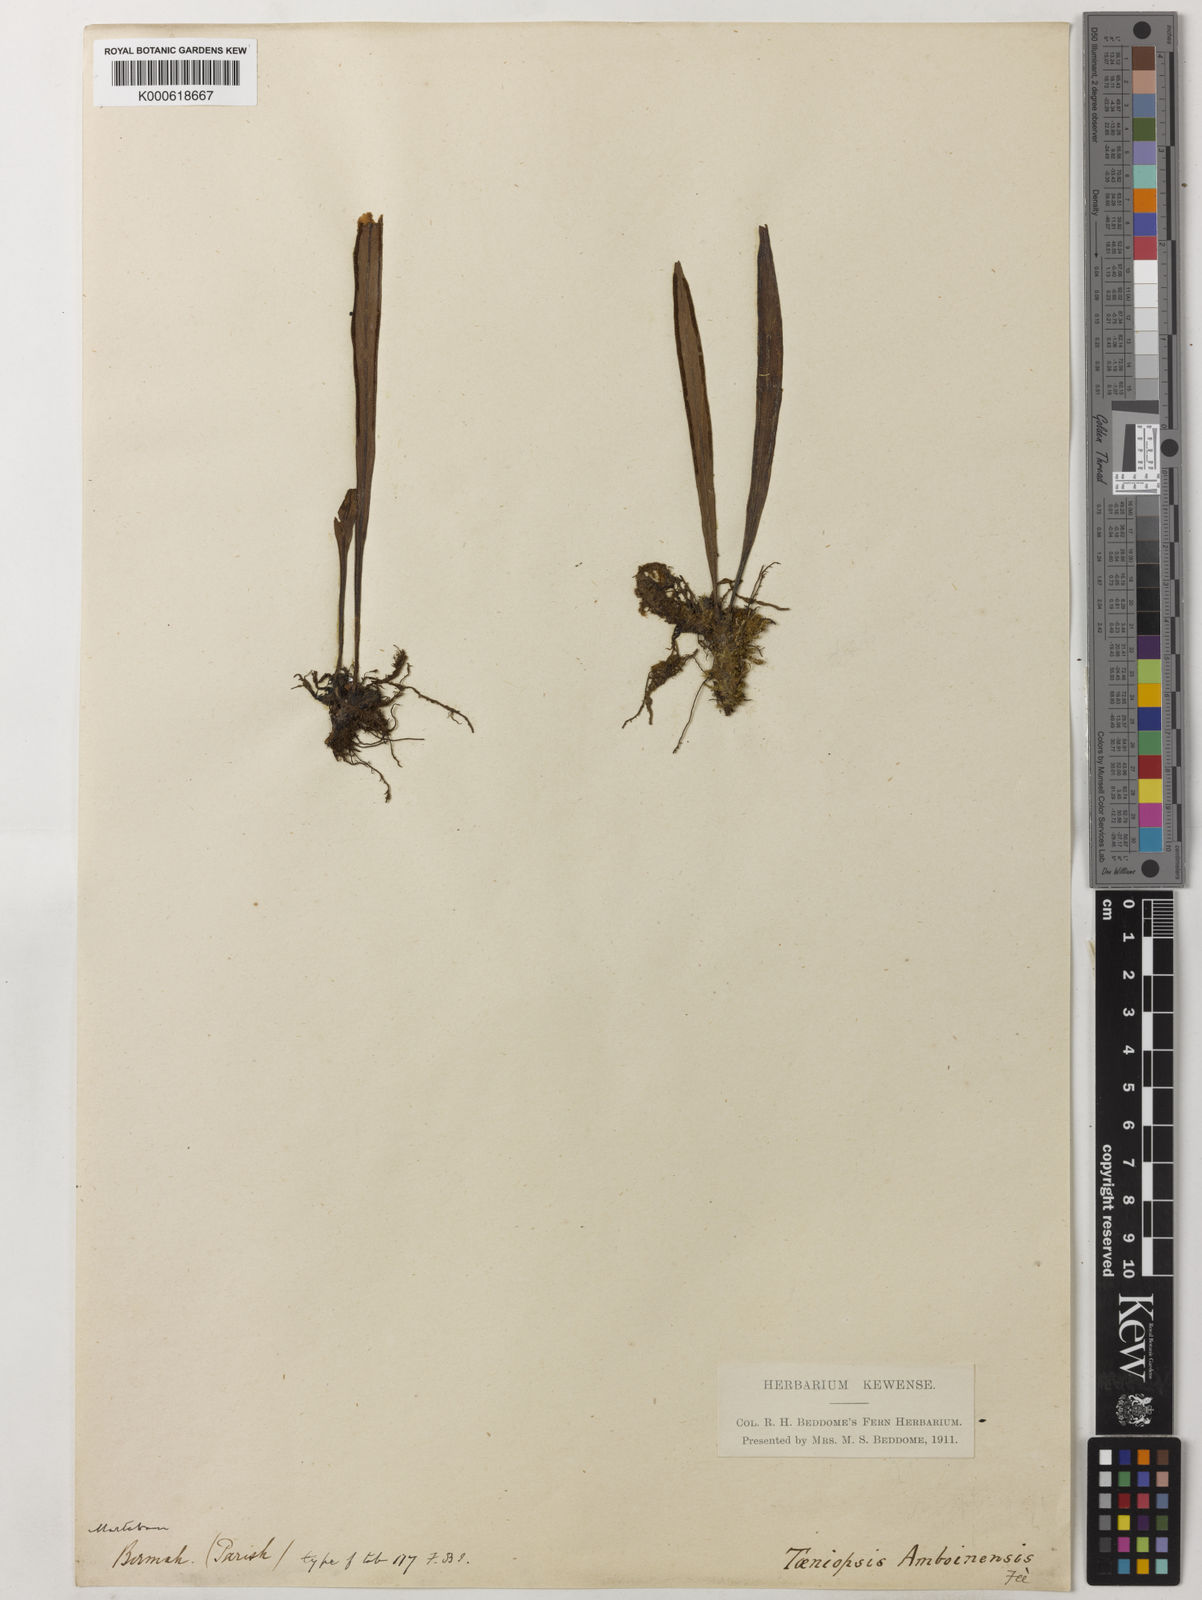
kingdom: Plantae
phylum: Tracheophyta
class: Polypodiopsida
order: Polypodiales
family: Pteridaceae
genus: Vittaria
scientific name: Vittaria
